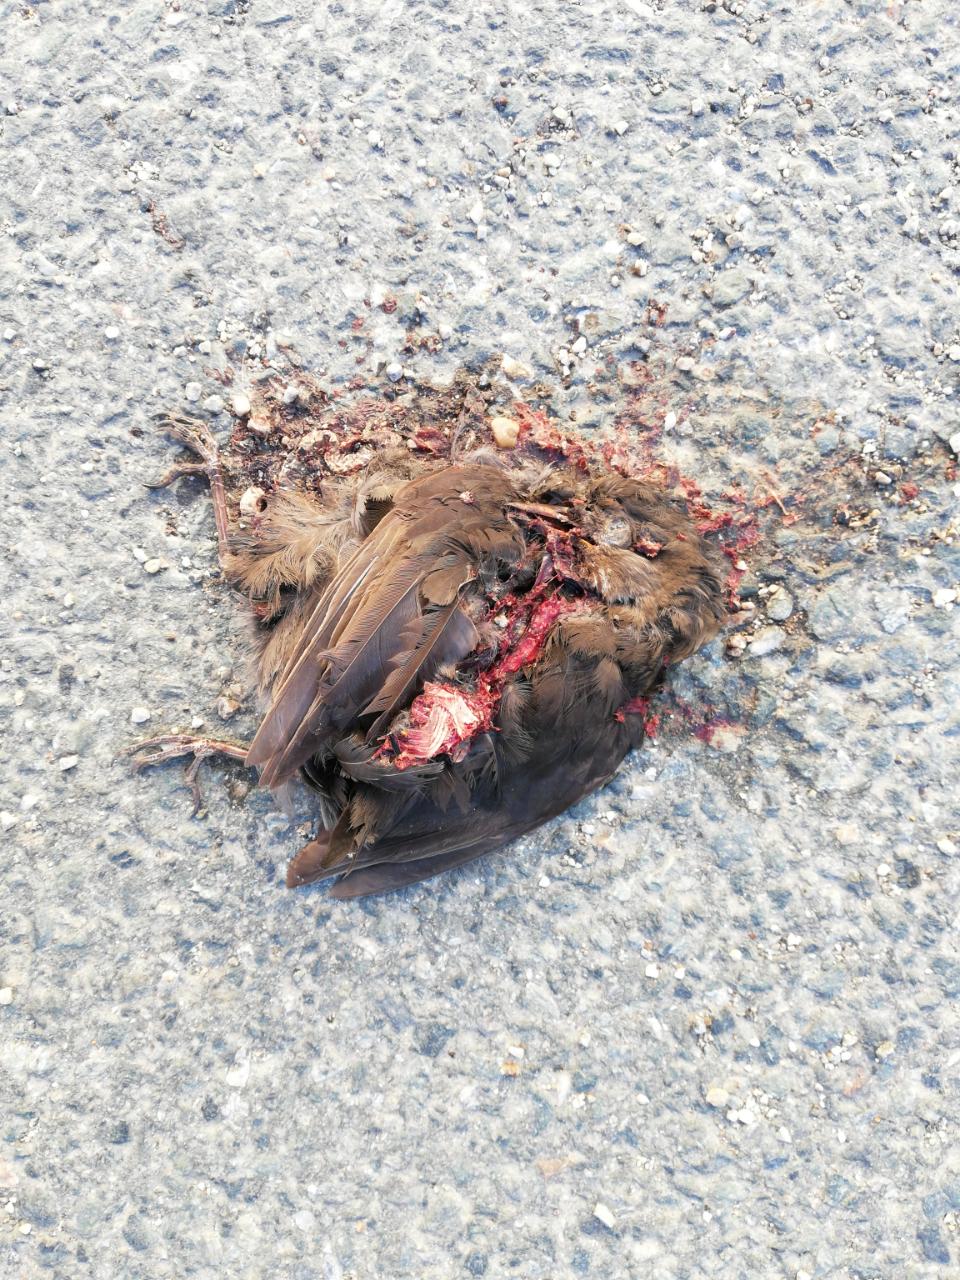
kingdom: Animalia
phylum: Chordata
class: Aves
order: Passeriformes
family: Turdidae
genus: Turdus
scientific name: Turdus merula
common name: Common blackbird
